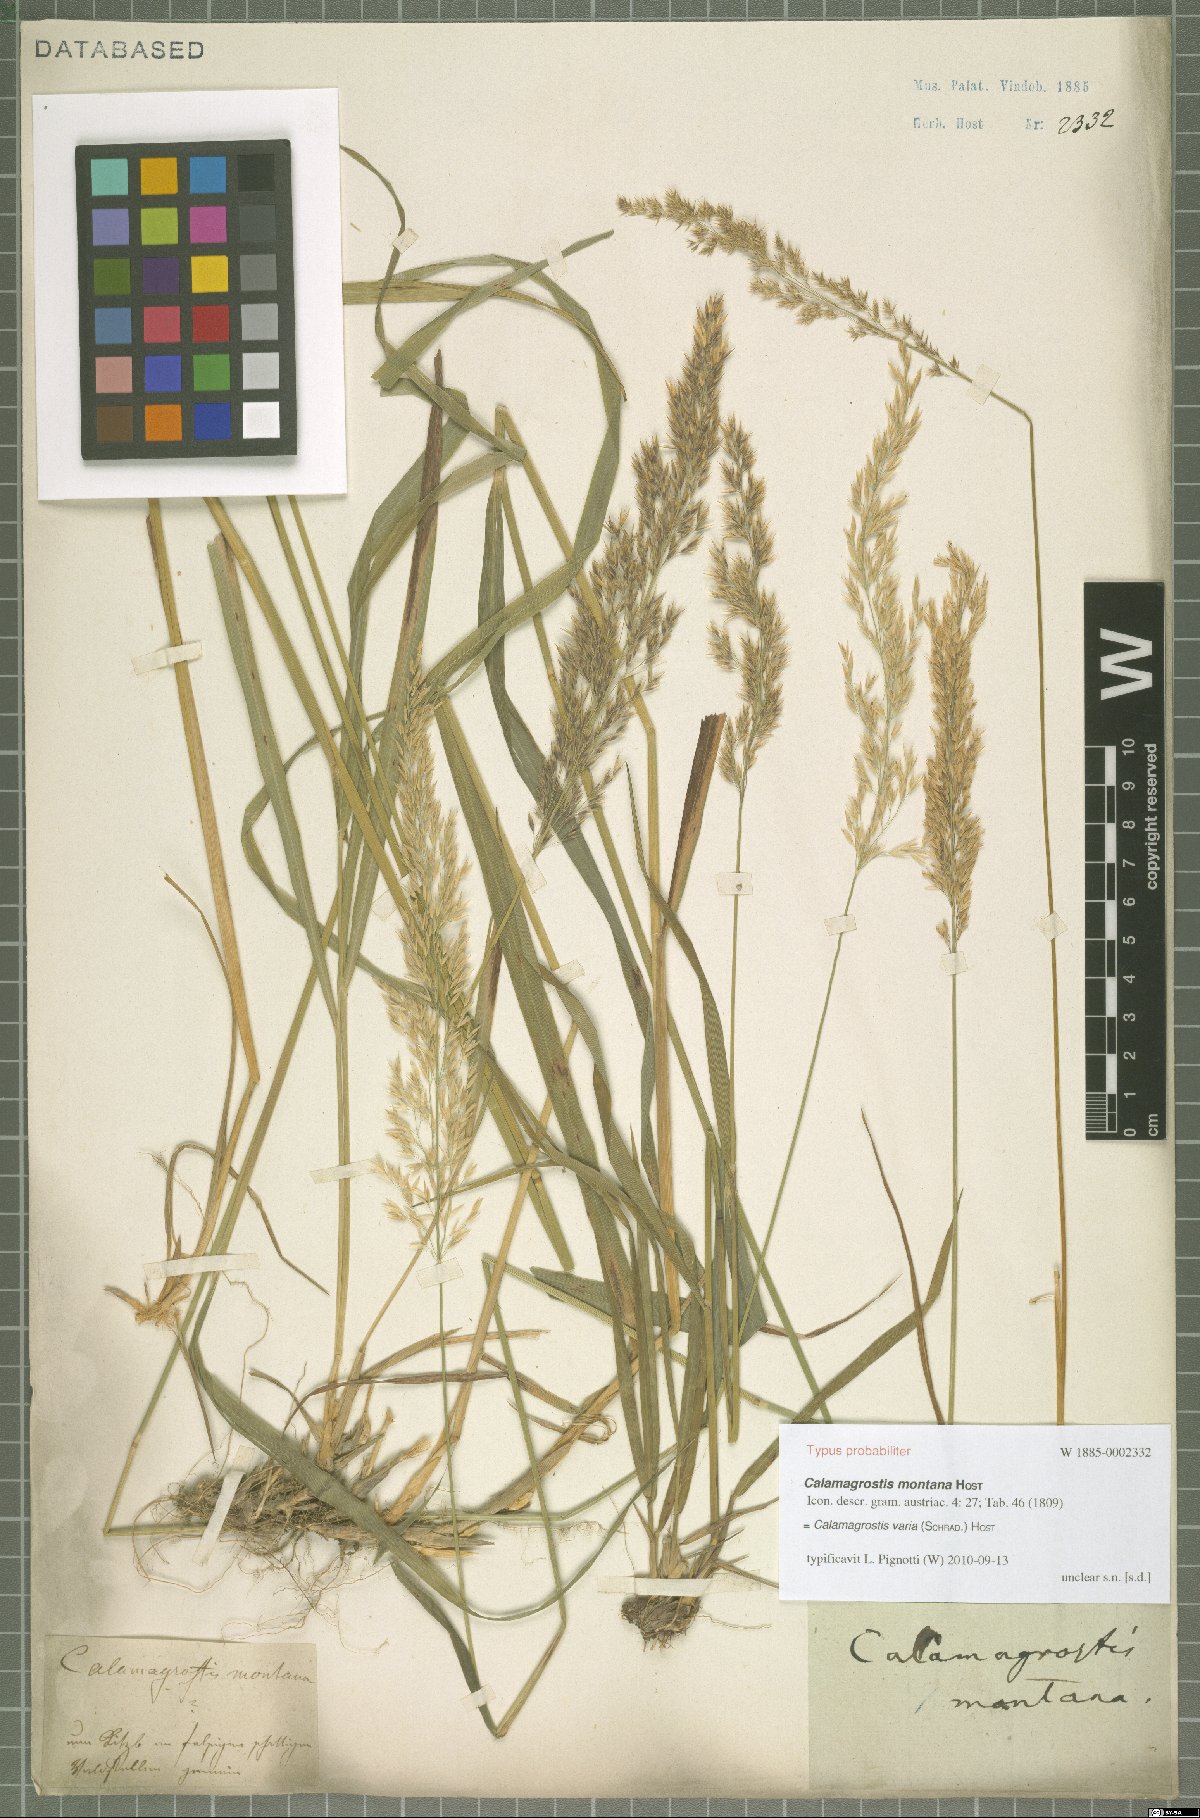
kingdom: Plantae
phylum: Tracheophyta
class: Liliopsida
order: Poales
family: Poaceae
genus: Calamagrostis
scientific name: Calamagrostis varia
